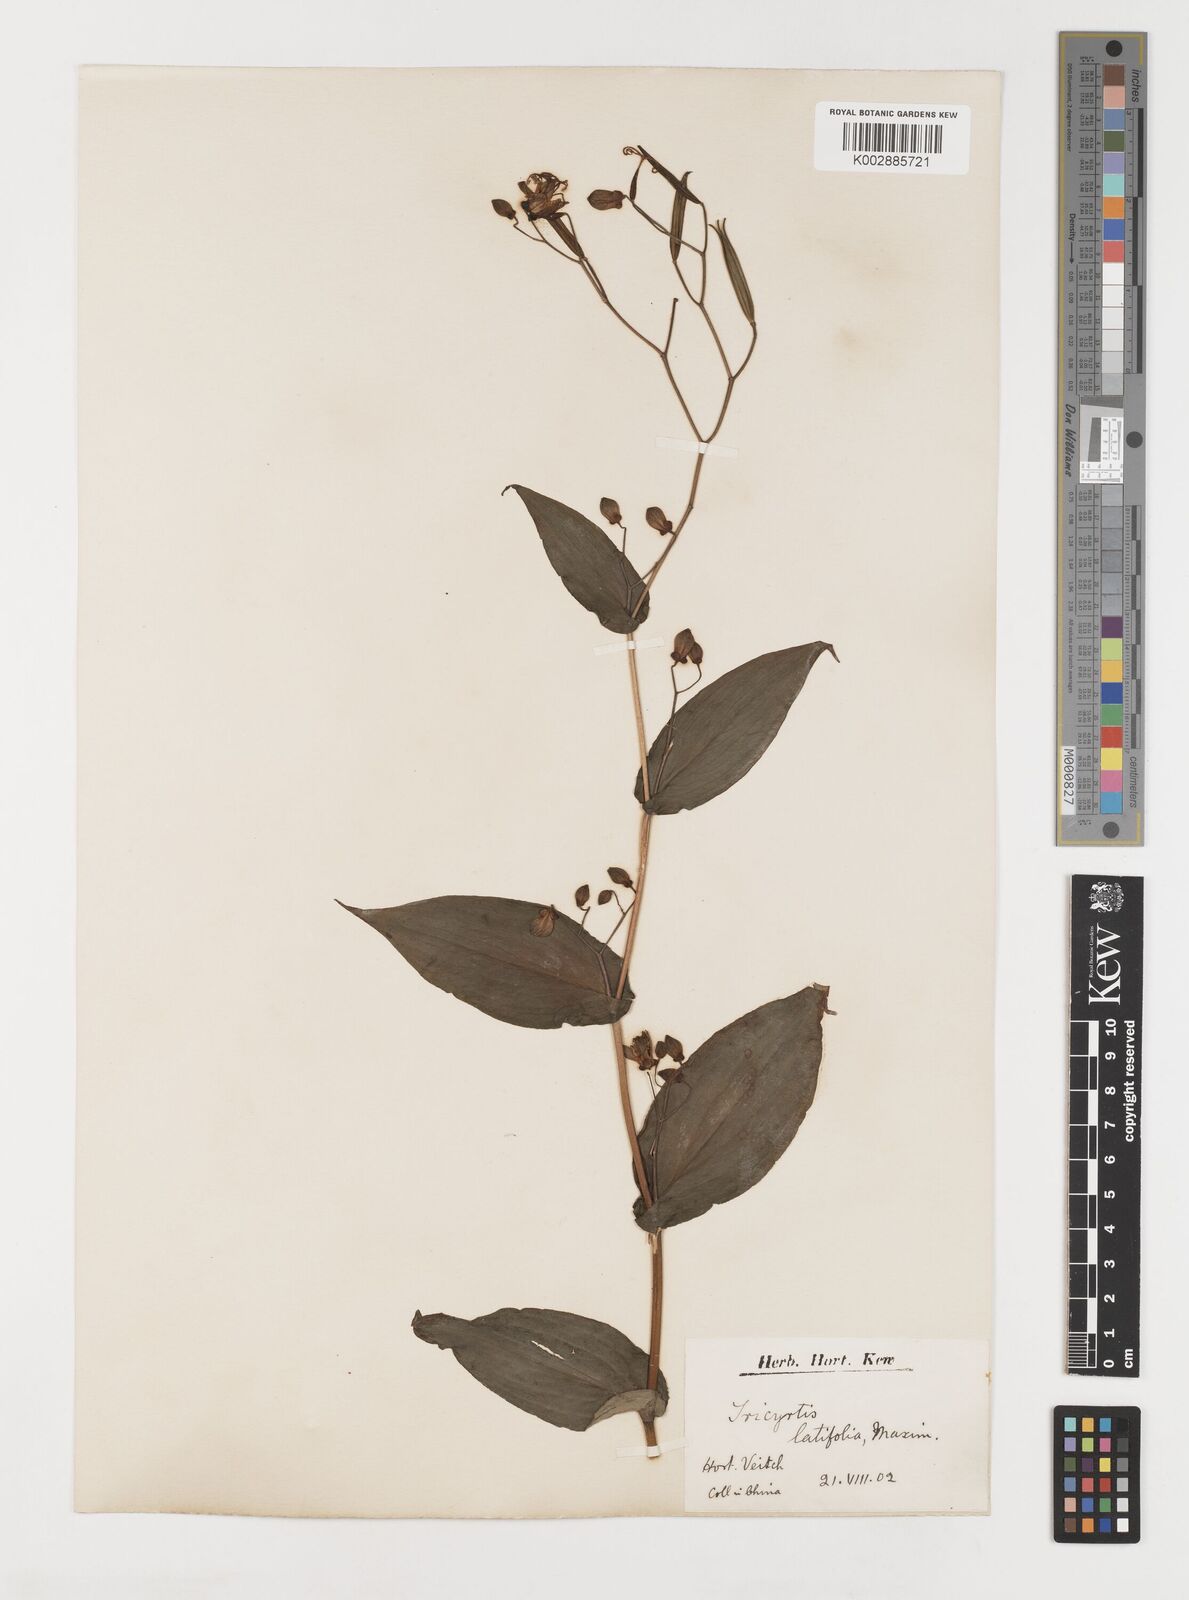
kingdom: Plantae
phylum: Tracheophyta
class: Liliopsida
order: Liliales
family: Liliaceae
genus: Tricyrtis
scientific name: Tricyrtis latifolia
